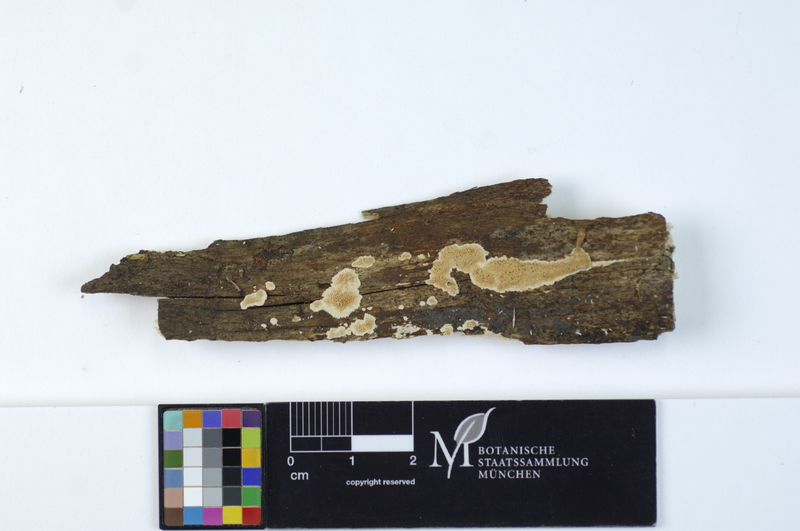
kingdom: Fungi
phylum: Basidiomycota
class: Agaricomycetes
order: Polyporales
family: Steccherinaceae
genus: Junghuhnia
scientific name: Junghuhnia nitida
